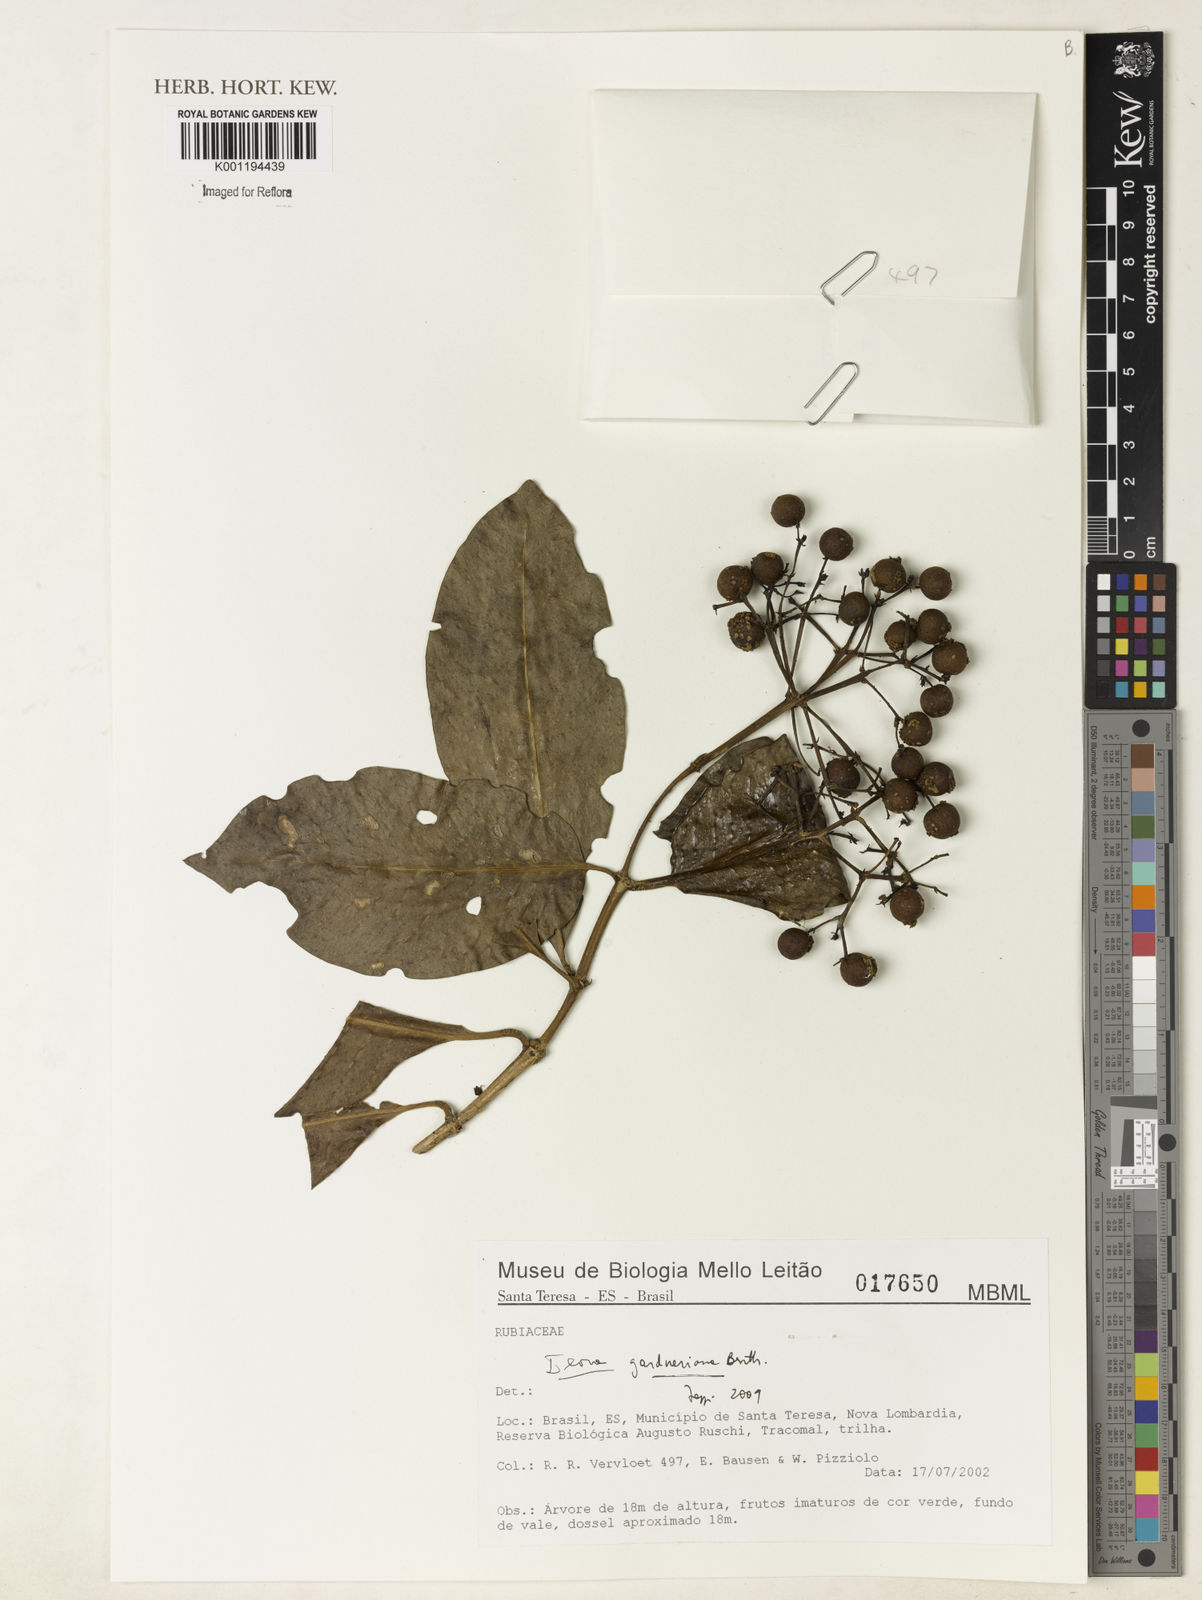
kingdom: Plantae
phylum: Tracheophyta
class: Magnoliopsida
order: Gentianales
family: Rubiaceae
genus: Ixora
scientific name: Ixora gardneriana
